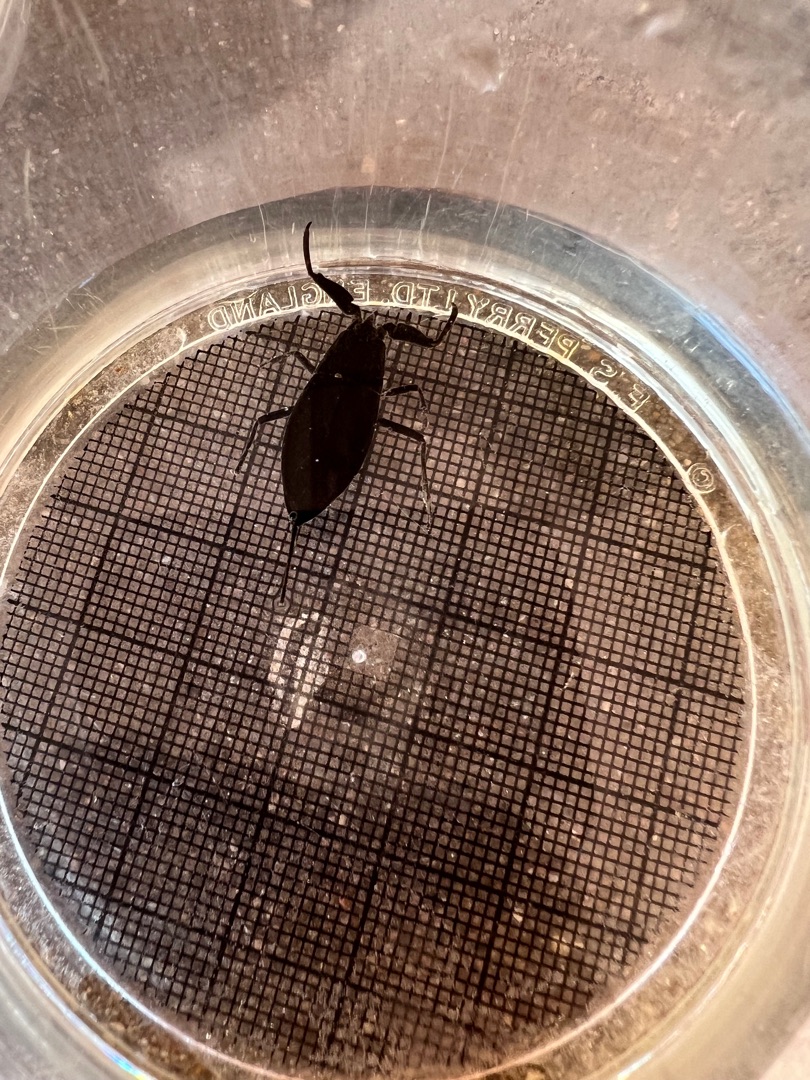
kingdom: Animalia
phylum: Arthropoda
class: Insecta
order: Hemiptera
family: Nepidae
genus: Nepa
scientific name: Nepa cinerea
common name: Skorpiontæge
